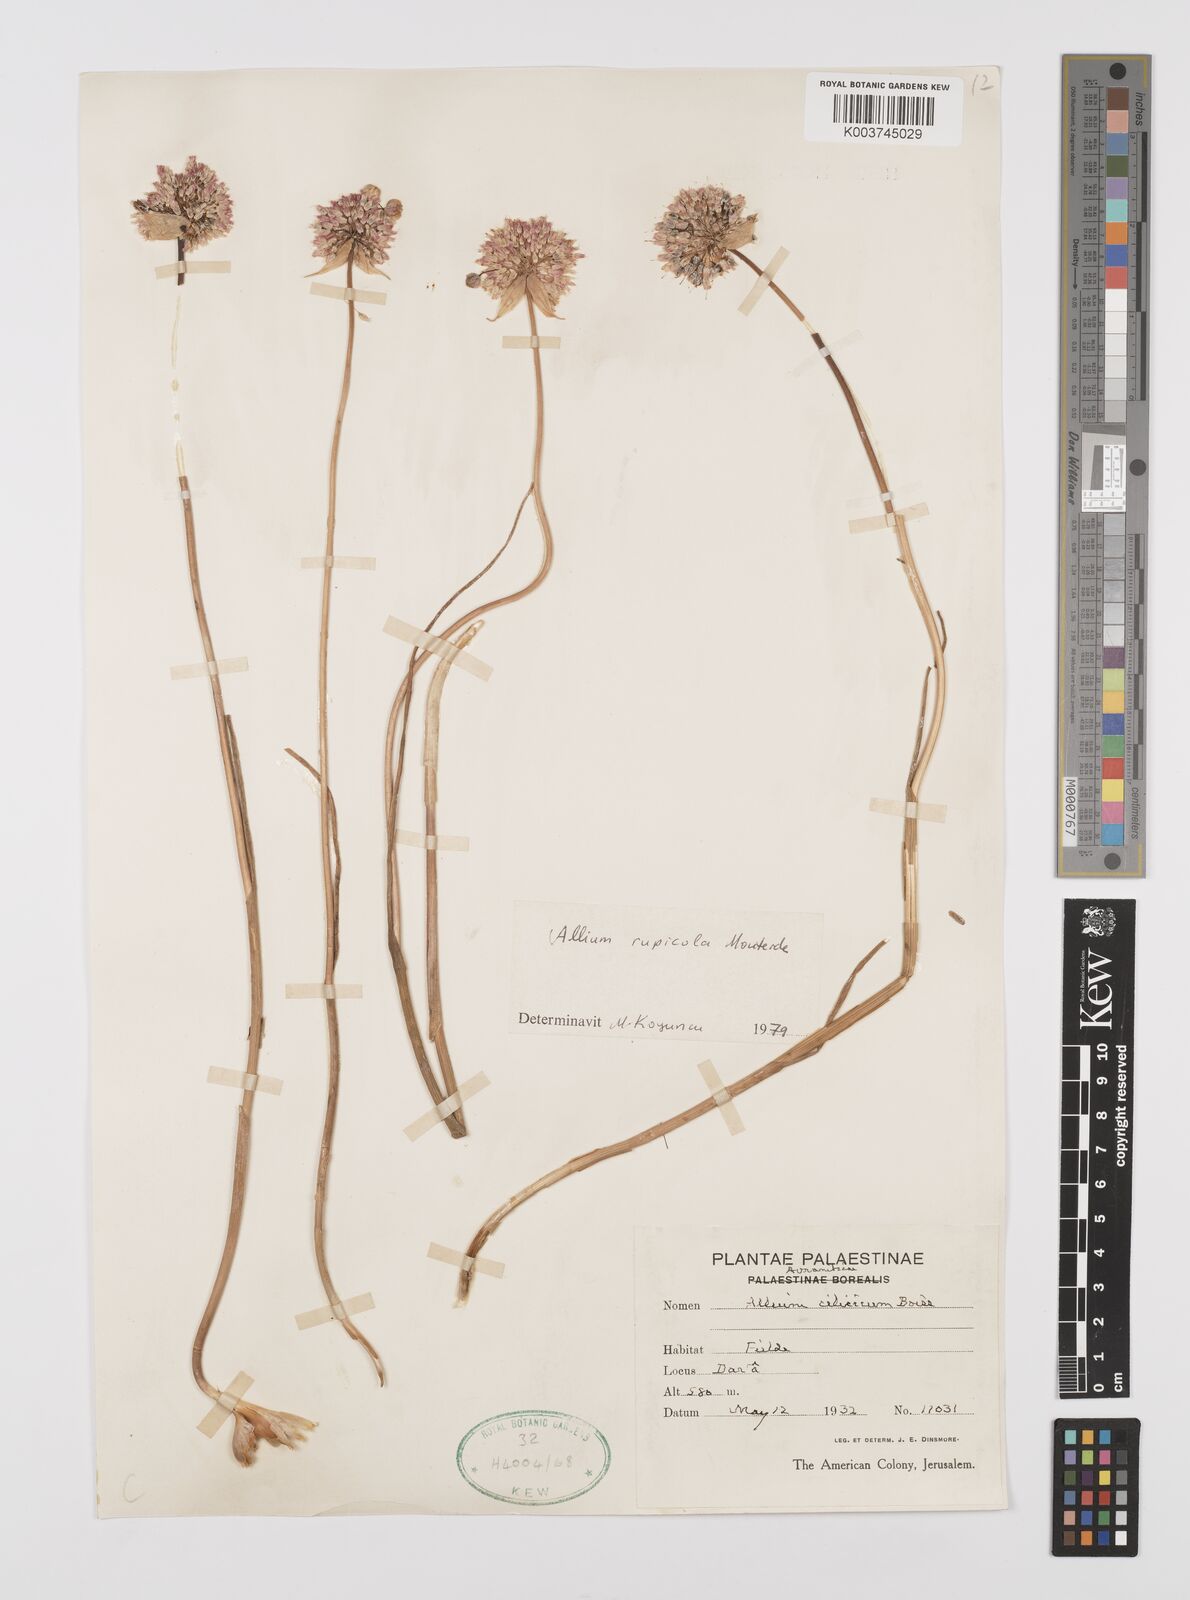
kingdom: Plantae
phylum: Tracheophyta
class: Liliopsida
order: Asparagales
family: Amaryllidaceae
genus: Allium
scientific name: Allium rupicola
